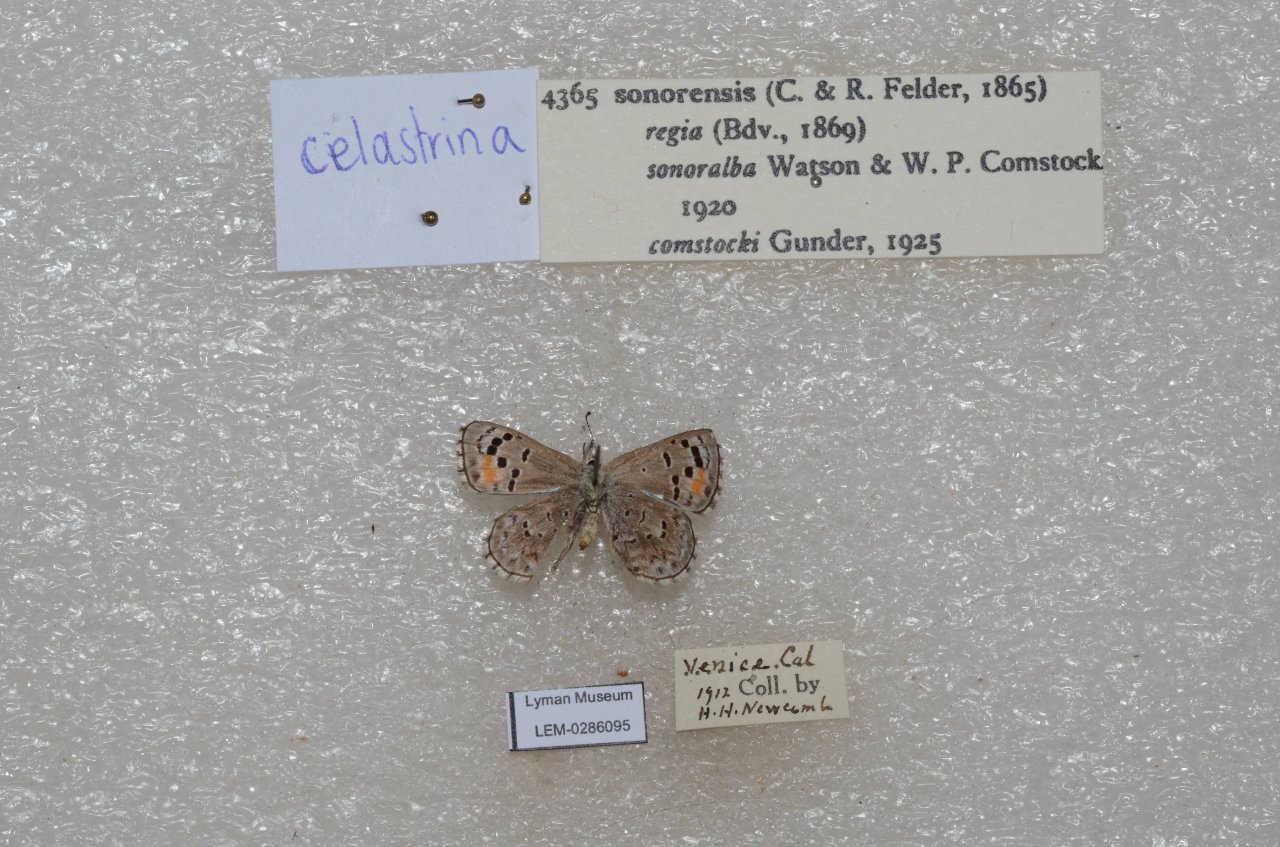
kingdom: Animalia
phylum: Arthropoda
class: Insecta
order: Lepidoptera
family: Lycaenidae
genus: Philotes
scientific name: Philotes sonorensis
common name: Sonoran Blue
